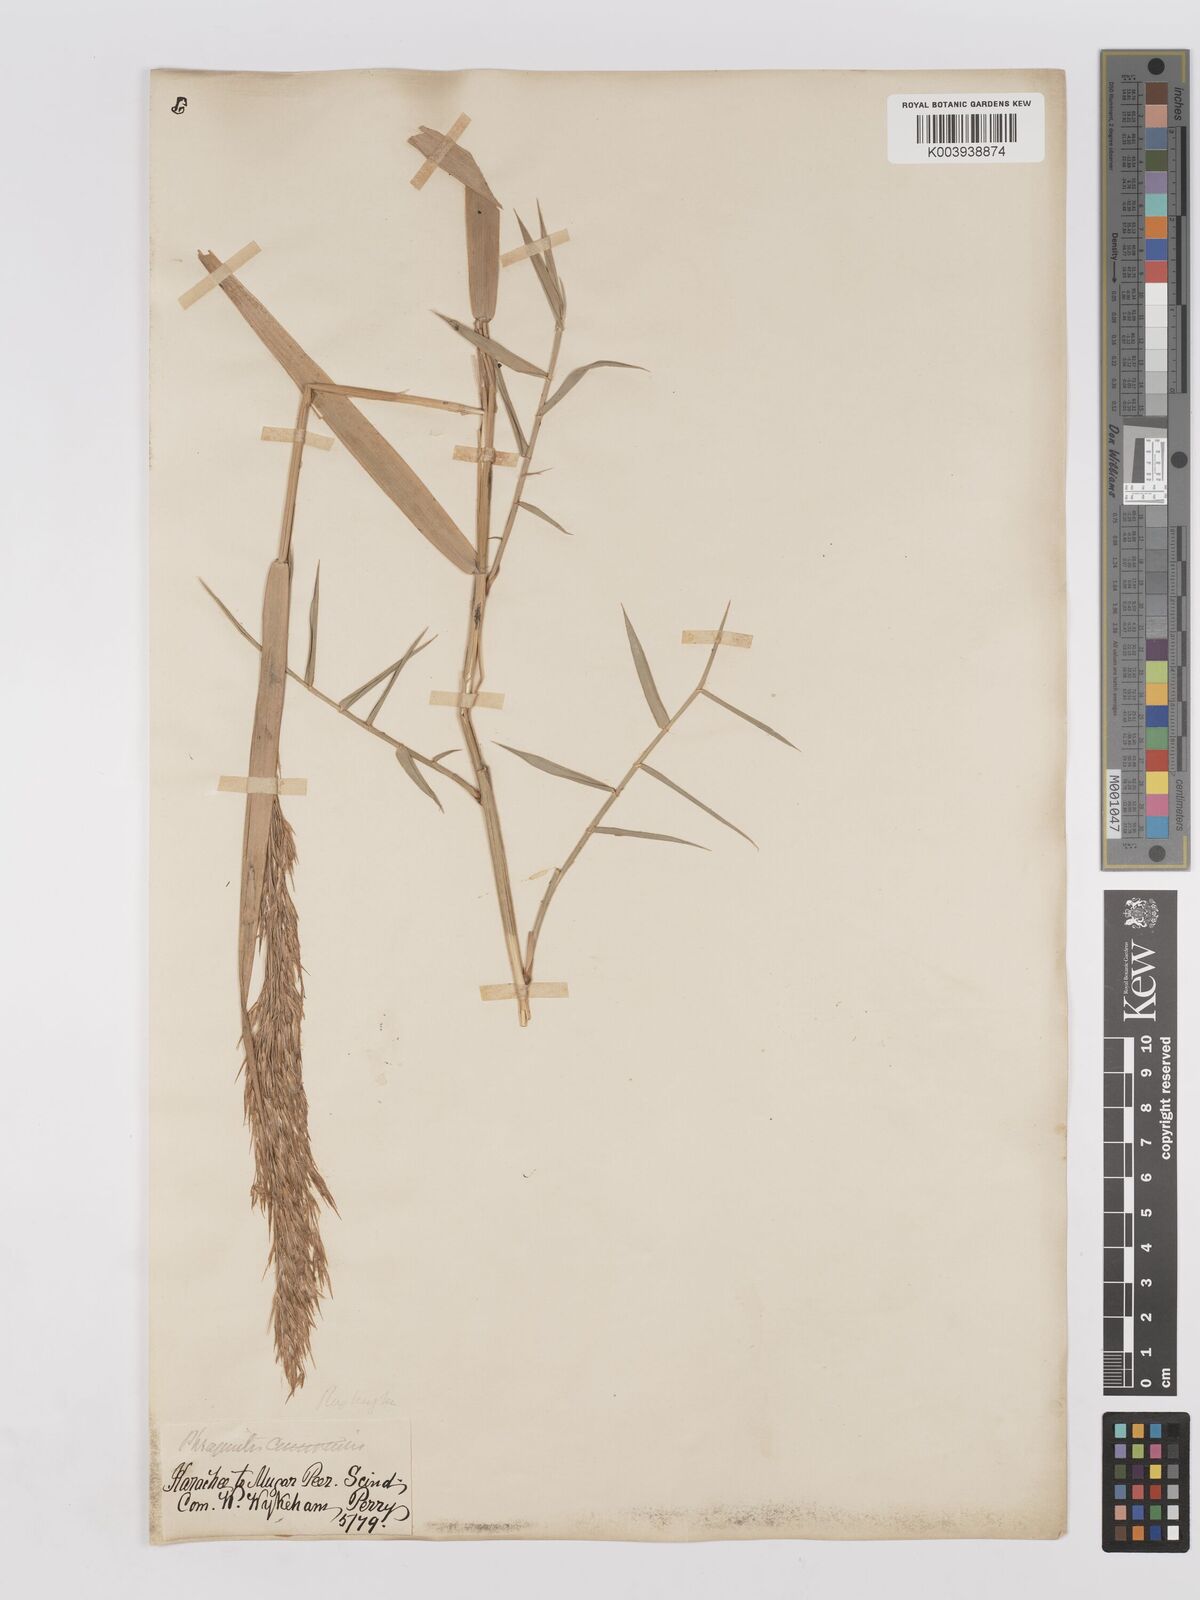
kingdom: Plantae
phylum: Tracheophyta
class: Liliopsida
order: Poales
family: Poaceae
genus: Phragmites
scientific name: Phragmites karka
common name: Tropical reed
